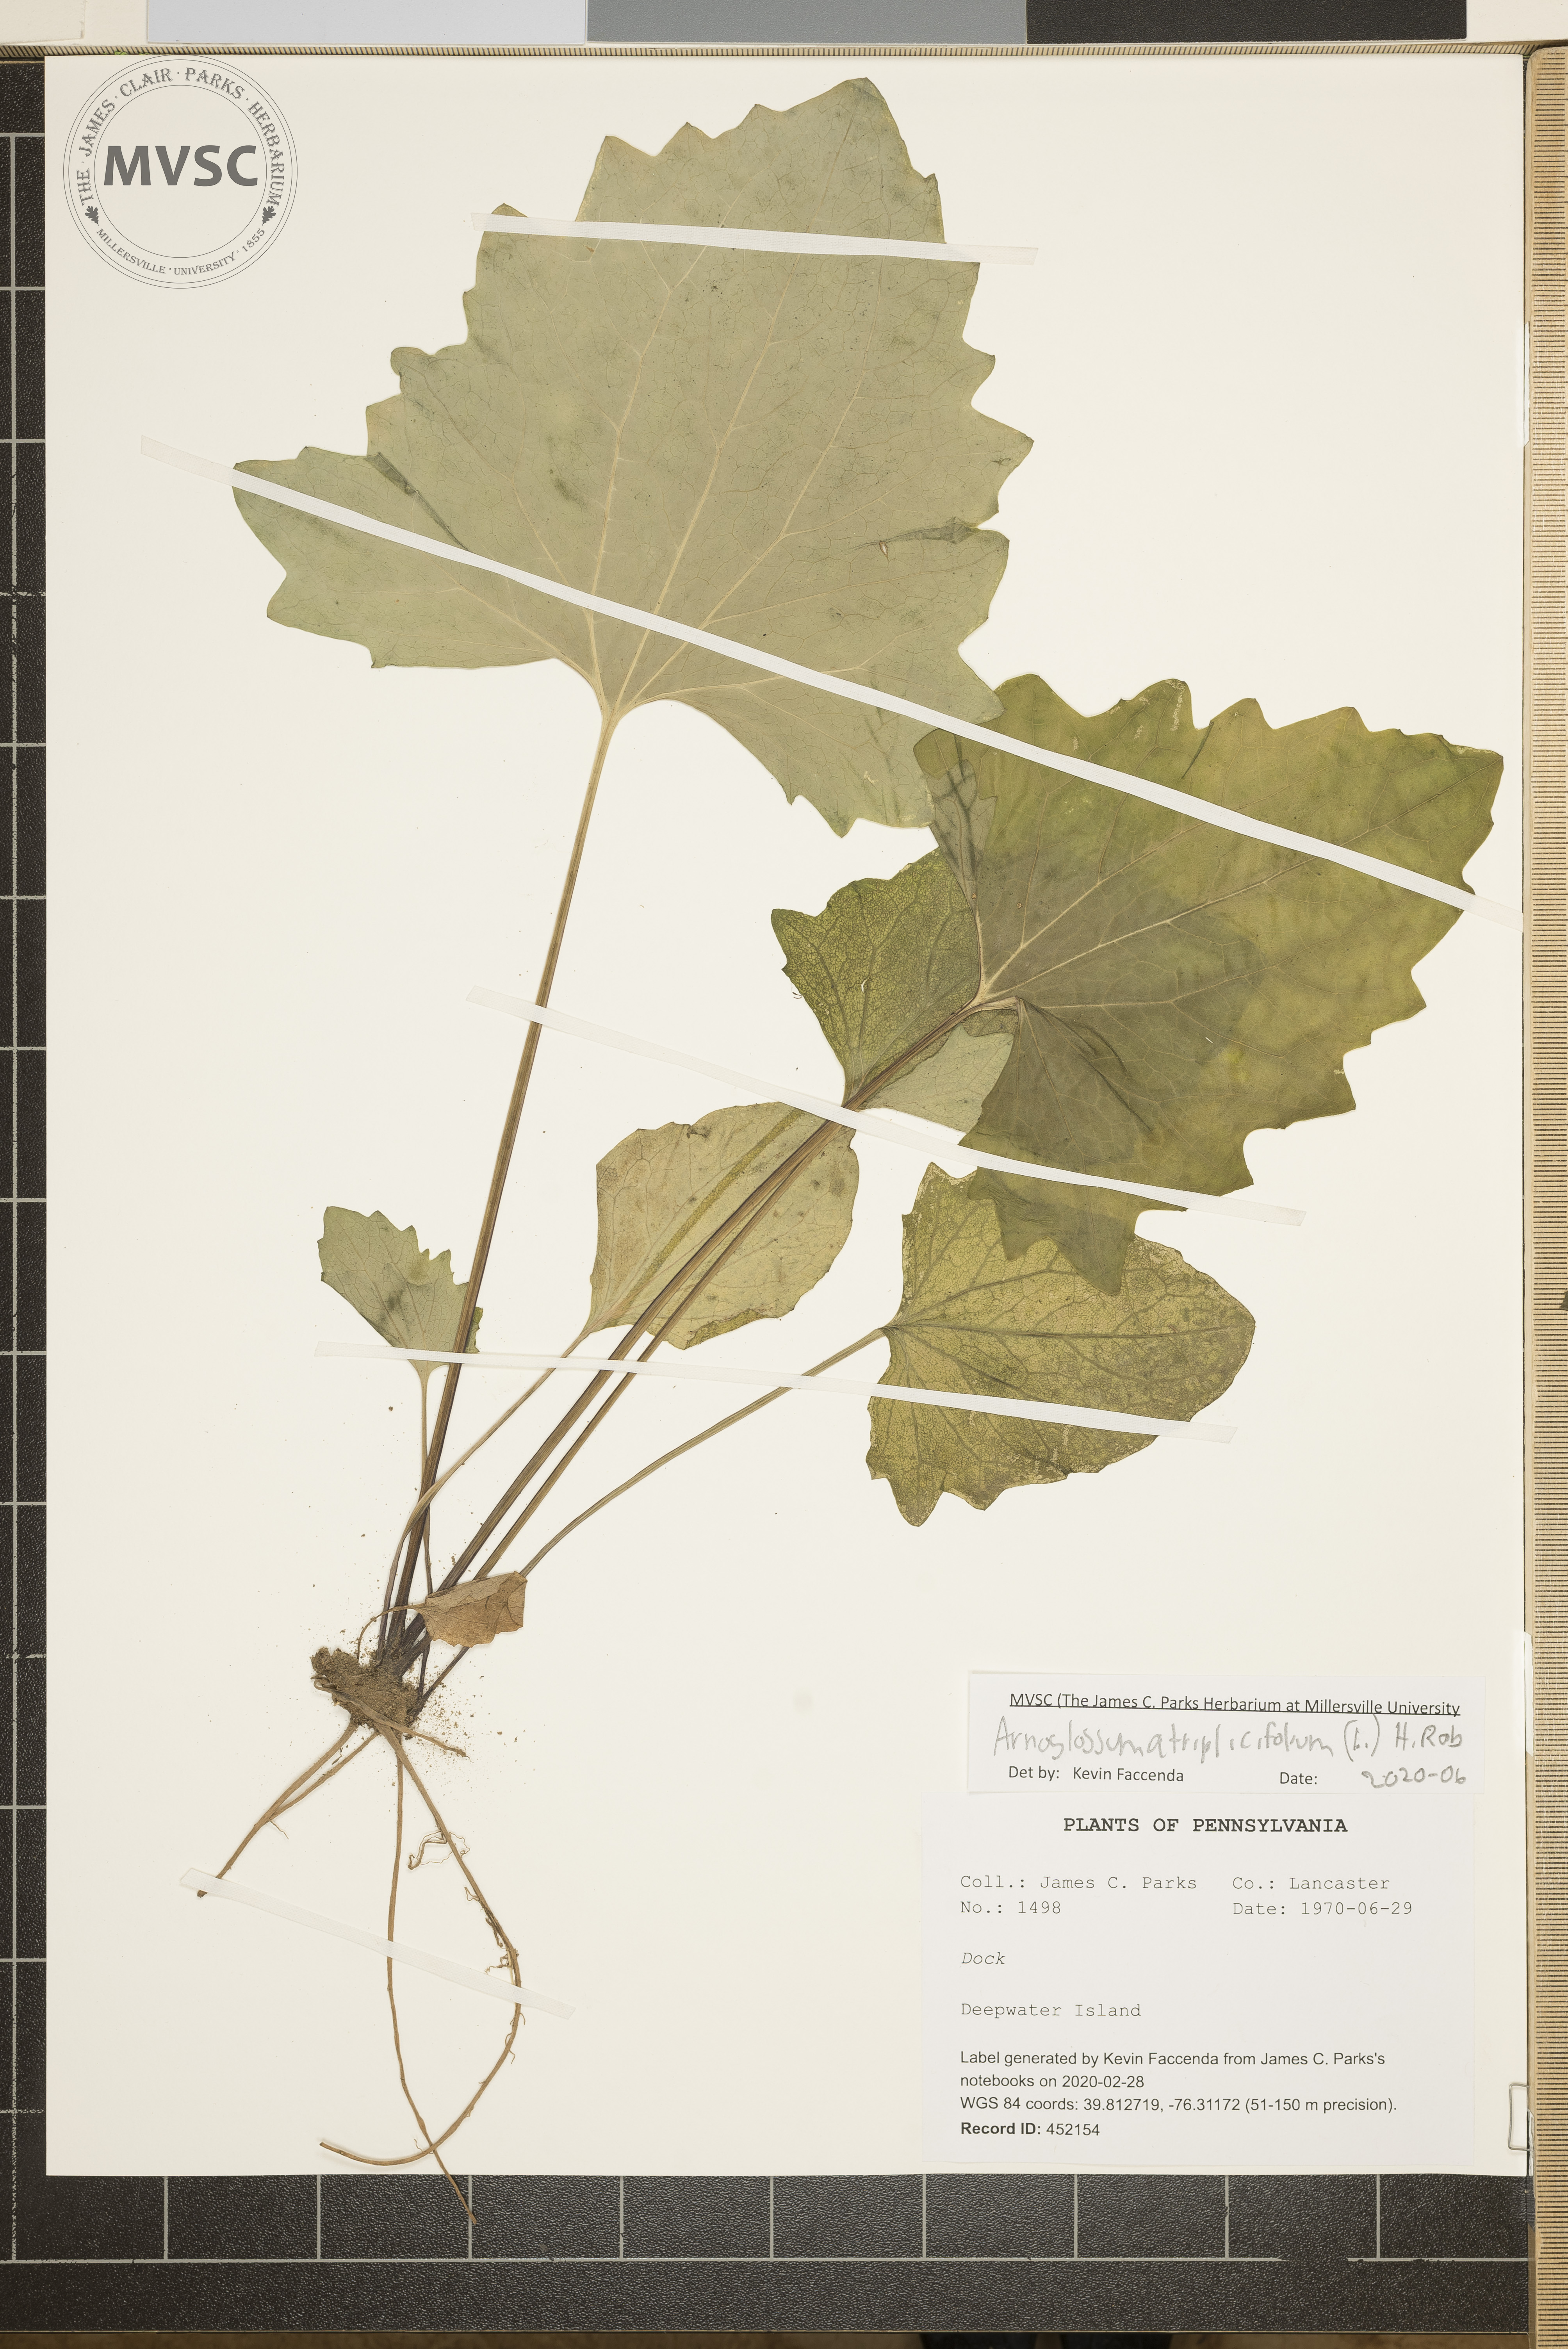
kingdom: Plantae
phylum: Tracheophyta
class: Magnoliopsida
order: Asterales
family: Asteraceae
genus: Arnoglossum
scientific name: Arnoglossum atriplicifolium
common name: Pale indian-plantain
